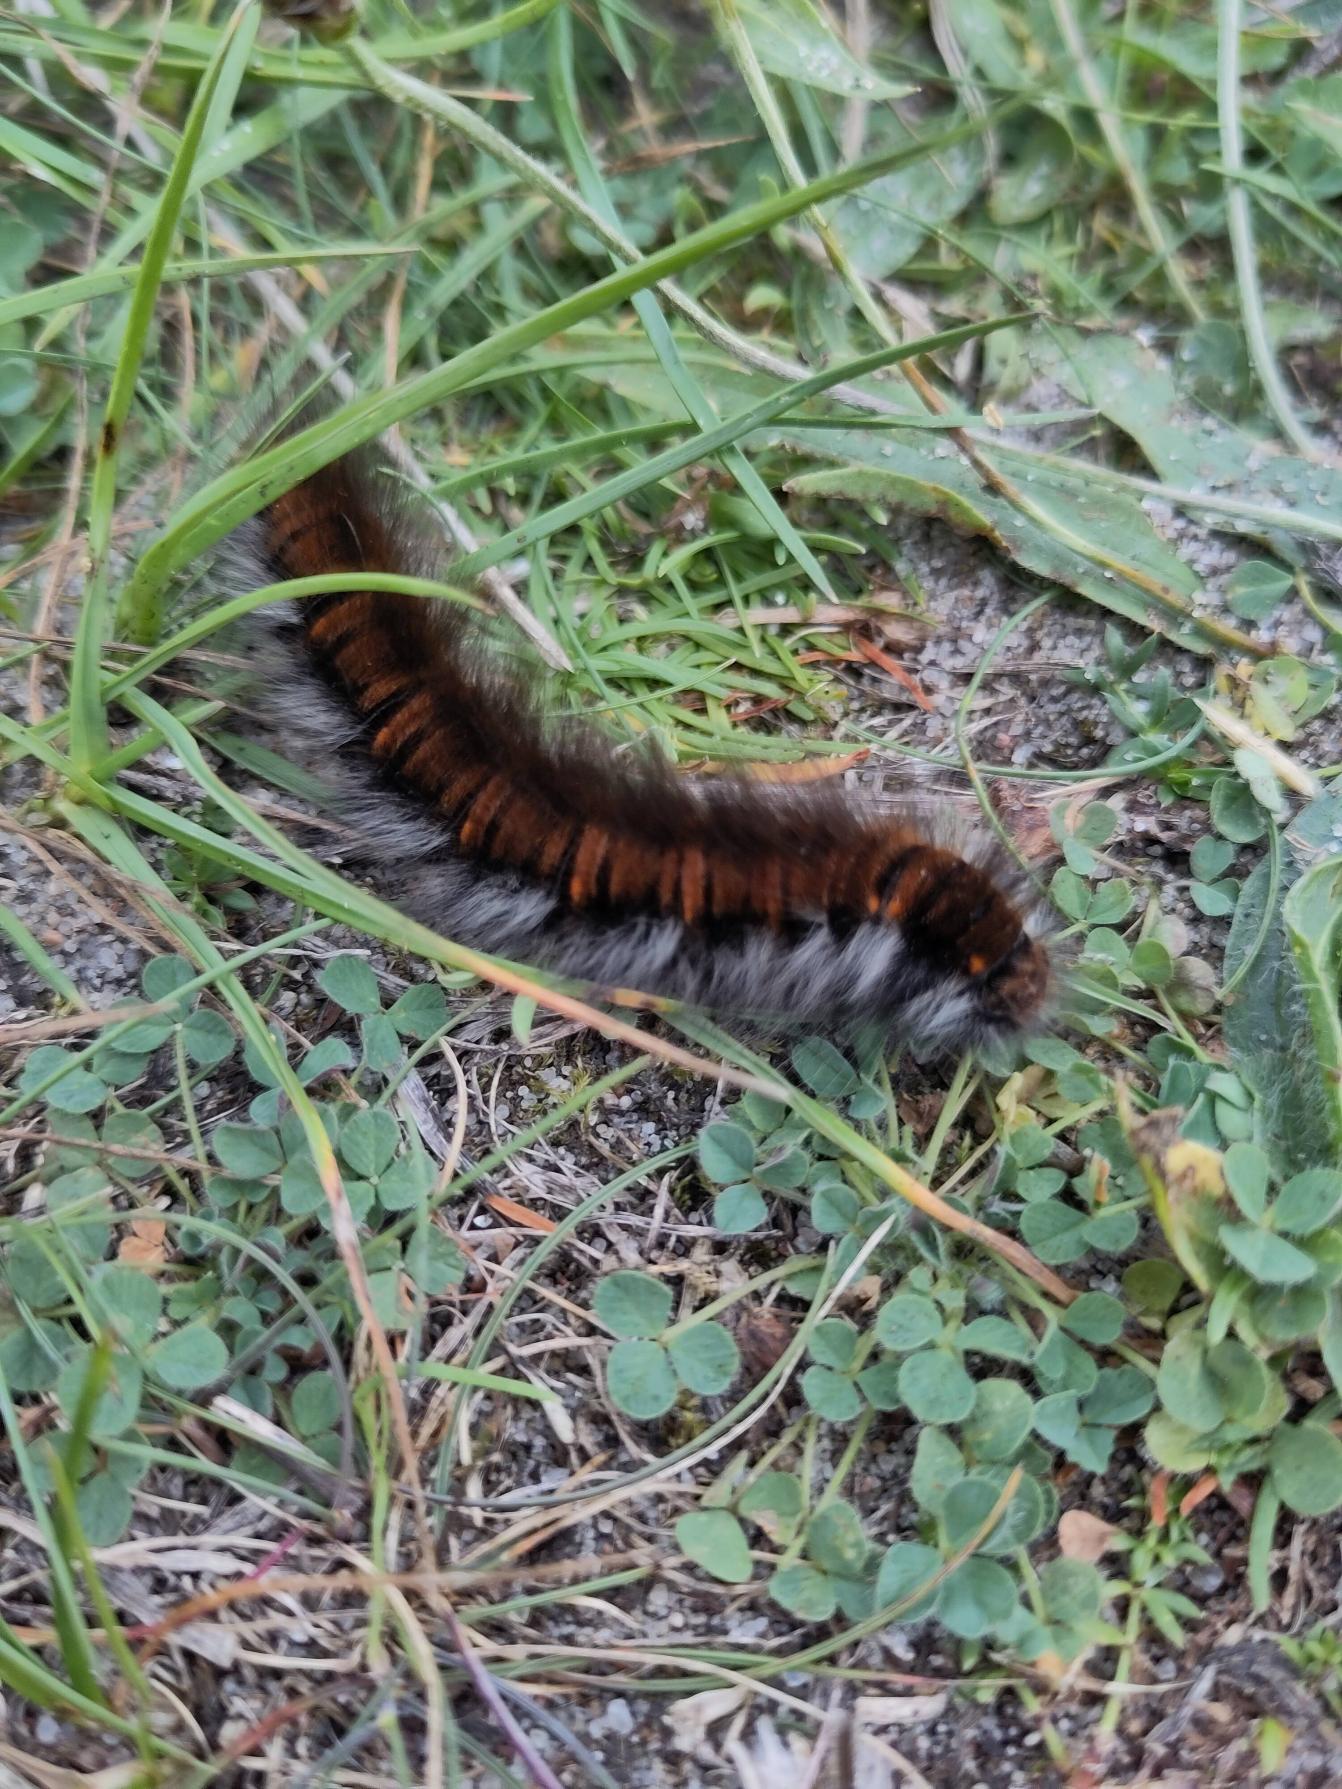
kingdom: Animalia
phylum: Arthropoda
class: Insecta
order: Lepidoptera
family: Lasiocampidae
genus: Macrothylacia
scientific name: Macrothylacia rubi
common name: Brombærspinder
